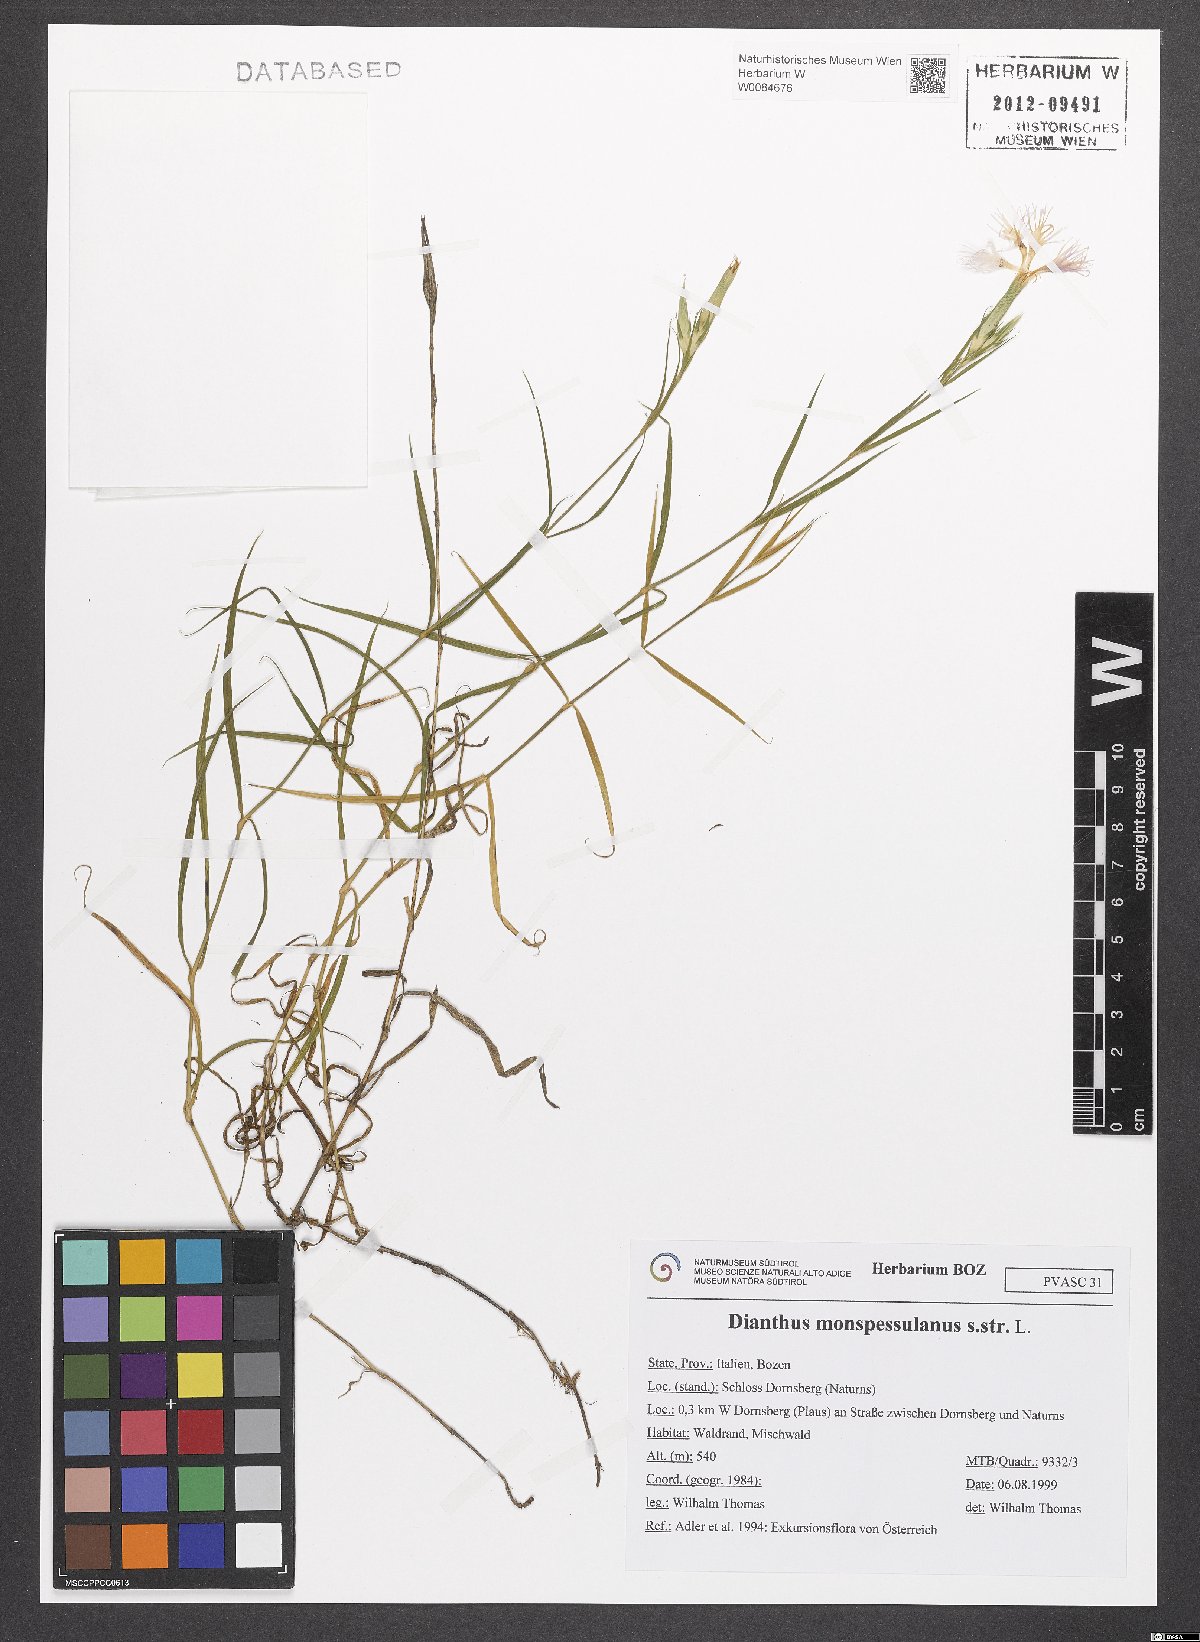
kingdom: Plantae
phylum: Tracheophyta
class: Magnoliopsida
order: Caryophyllales
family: Caryophyllaceae
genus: Dianthus
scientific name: Dianthus hyssopifolius
